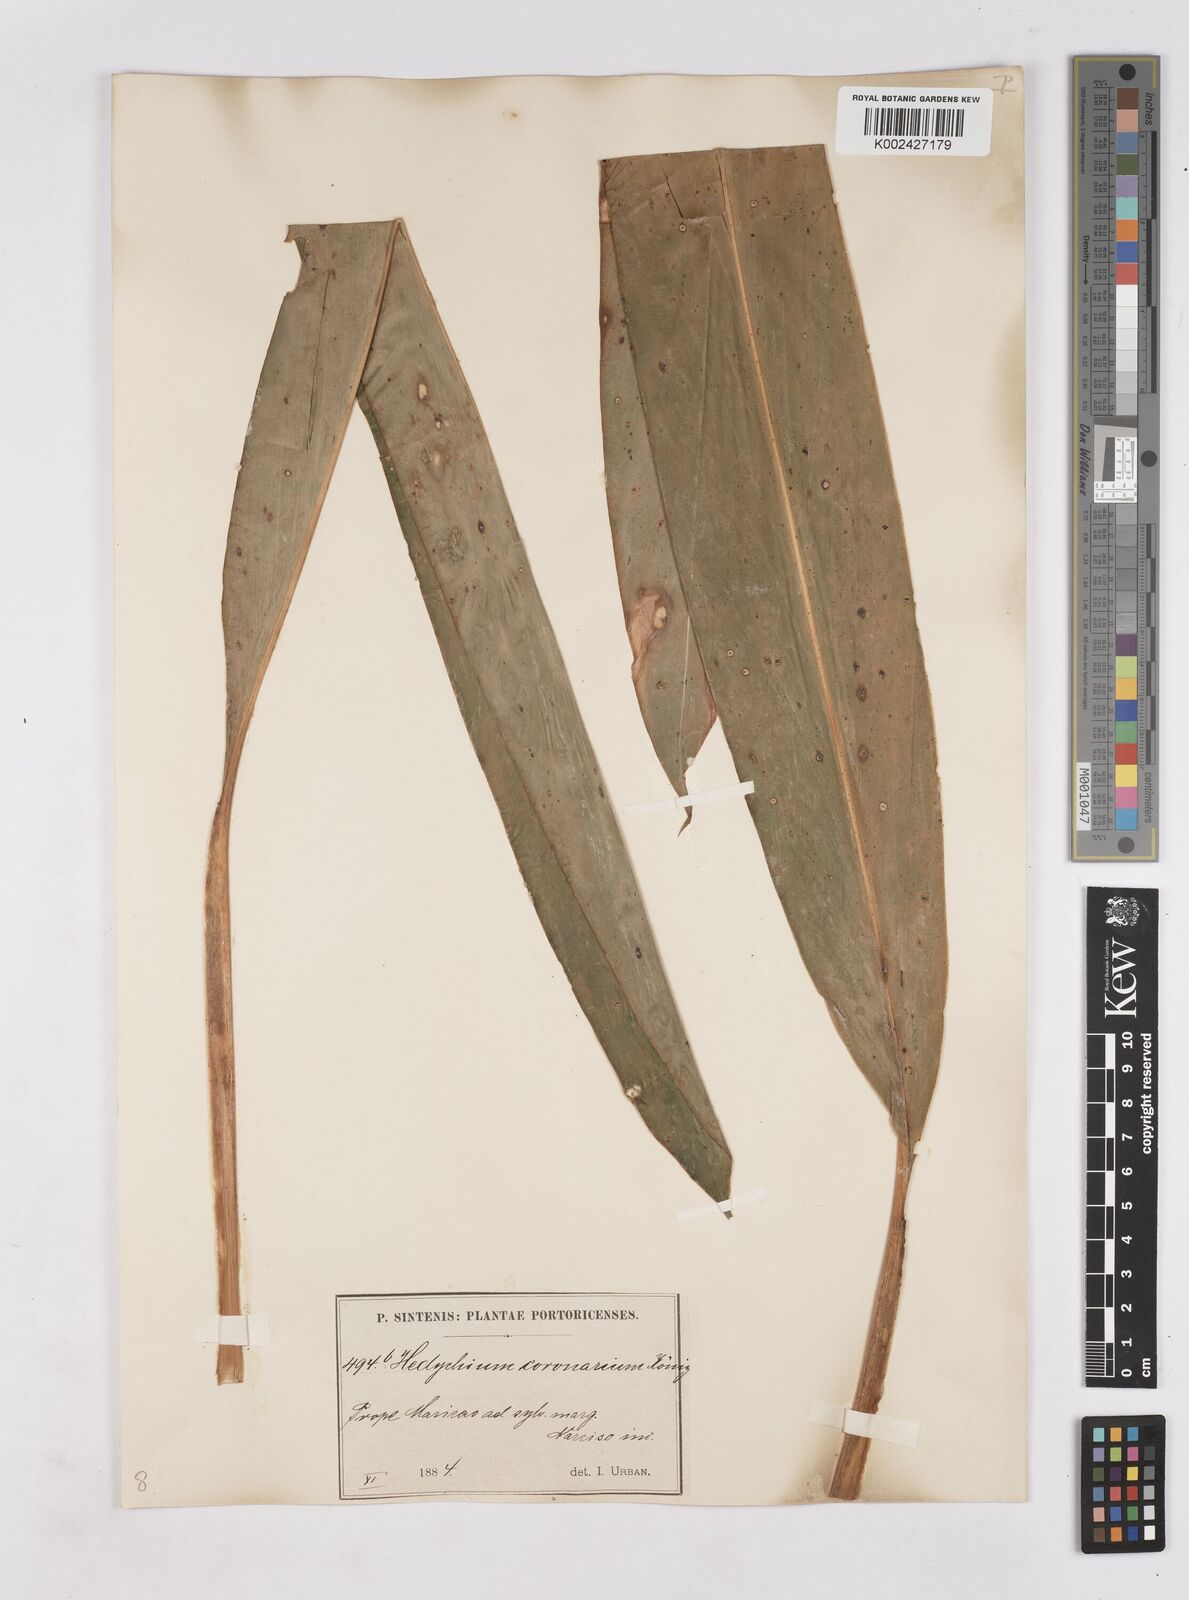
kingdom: Plantae
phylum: Tracheophyta
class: Liliopsida
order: Zingiberales
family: Zingiberaceae
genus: Hedychium
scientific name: Hedychium coronarium
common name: White garland-lily
